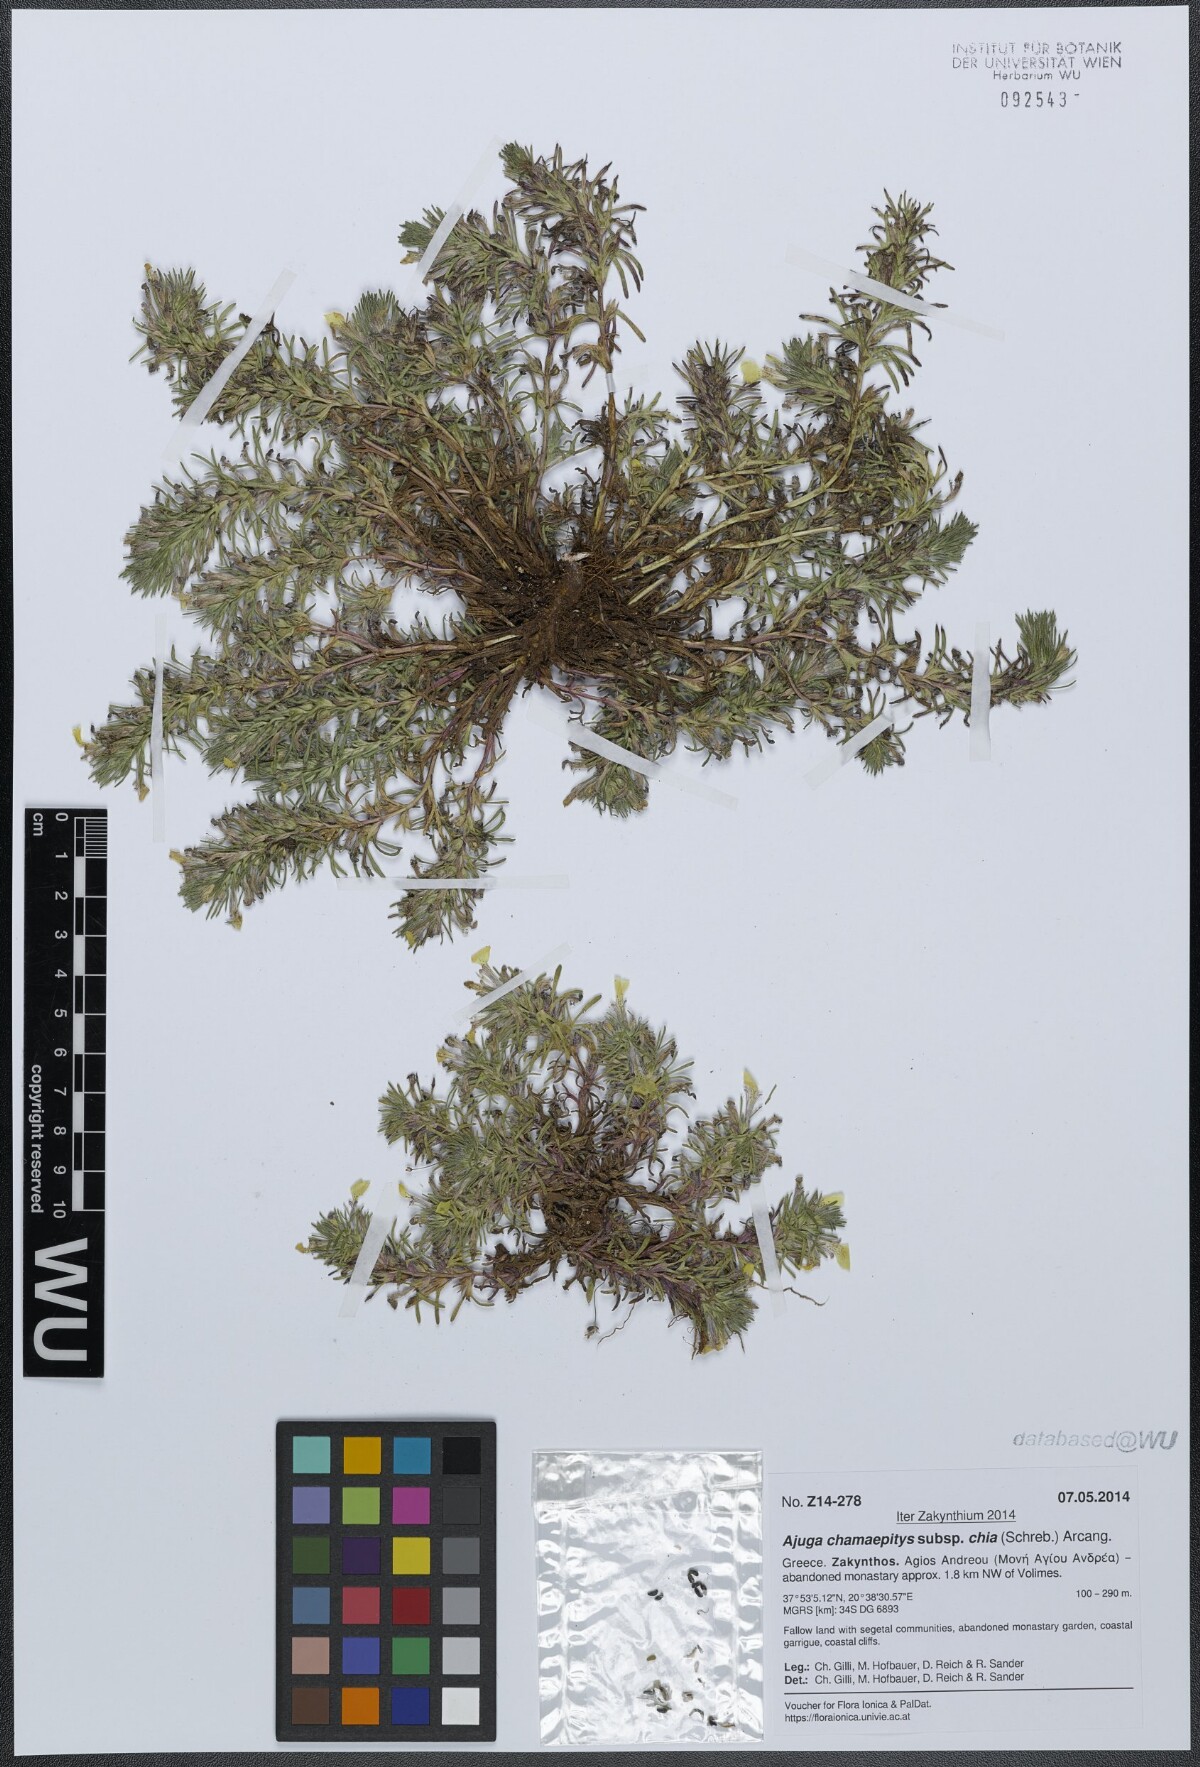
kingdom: Plantae
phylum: Tracheophyta
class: Magnoliopsida
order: Lamiales
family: Lamiaceae
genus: Ajuga
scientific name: Ajuga chamaepitys
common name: Ground-pine
